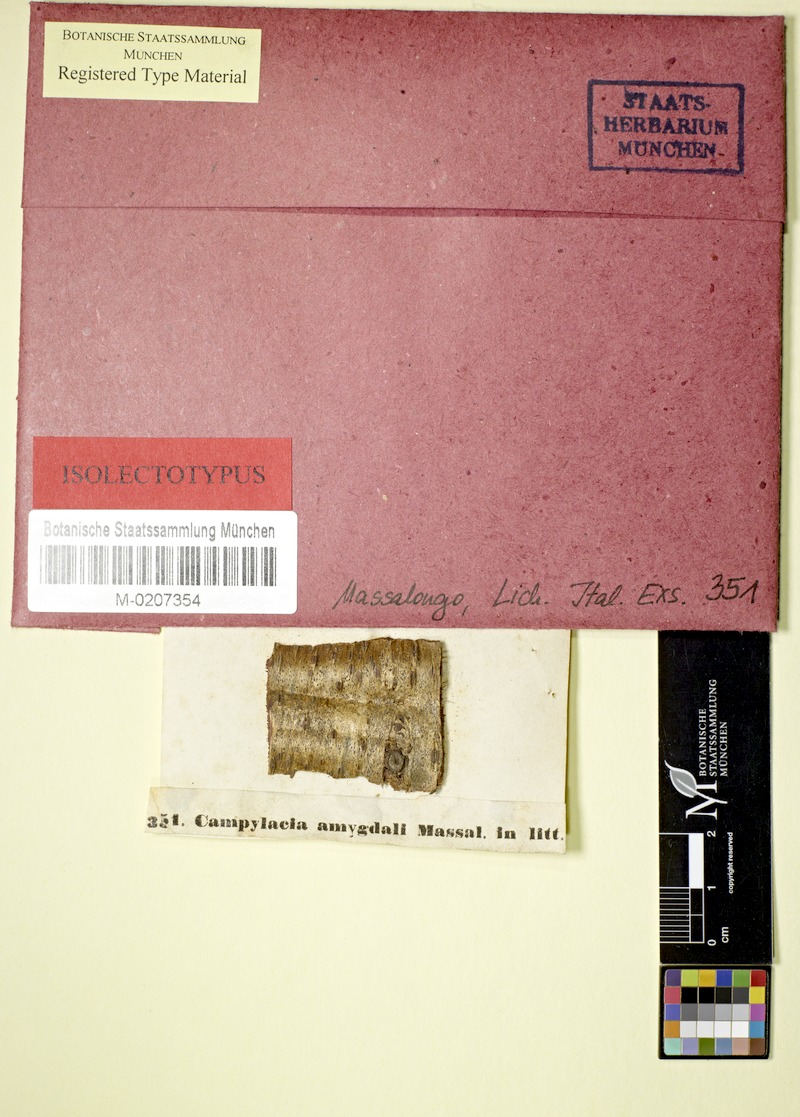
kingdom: Fungi
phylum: Ascomycota
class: Dothideomycetes
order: Pleosporales
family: Naetrocymbaceae
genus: Leptorhaphis
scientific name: Leptorhaphis amygdali
